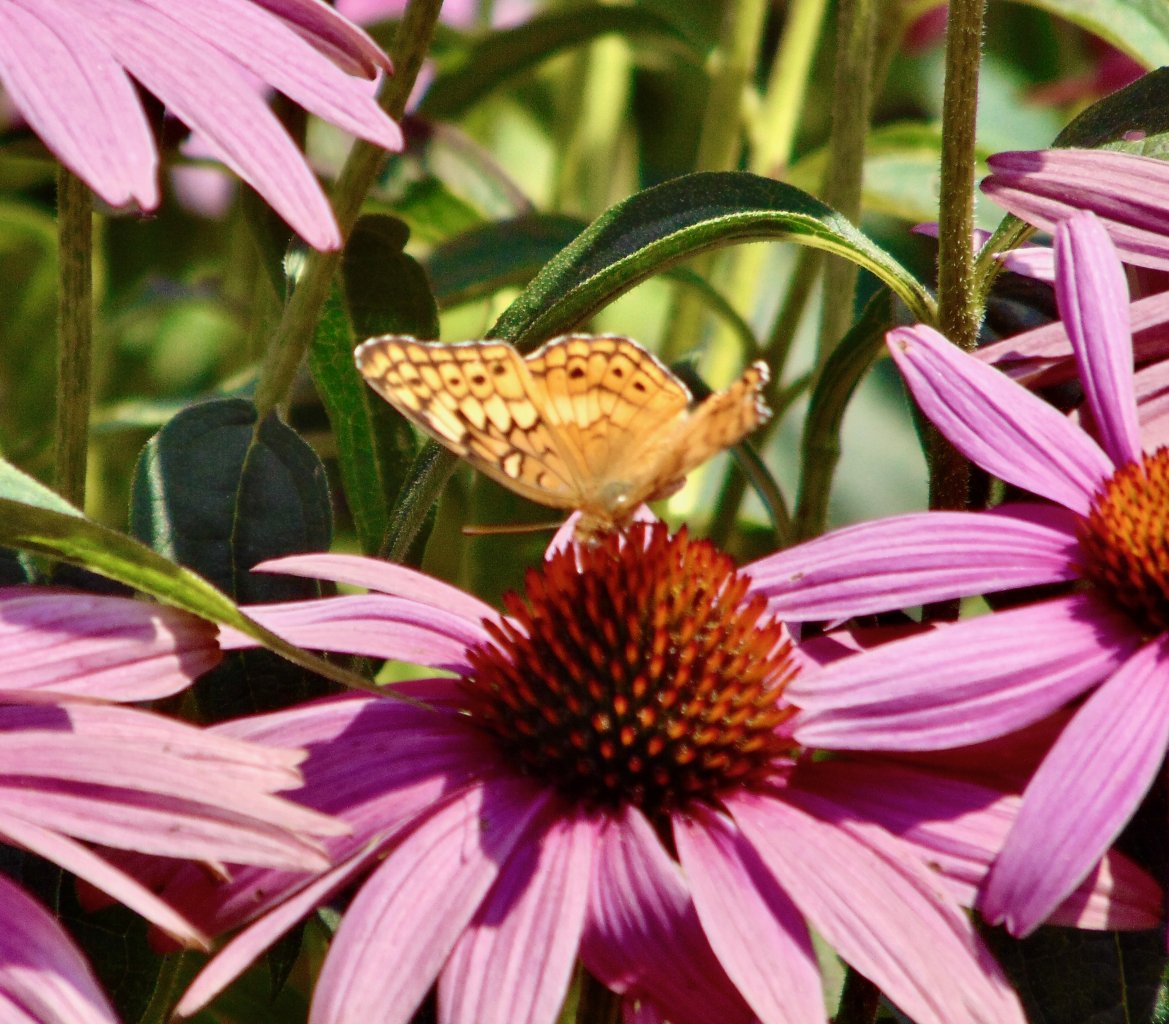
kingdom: Animalia
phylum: Arthropoda
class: Insecta
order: Lepidoptera
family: Nymphalidae
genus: Euptoieta
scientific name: Euptoieta claudia
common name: Variegated Fritillary
